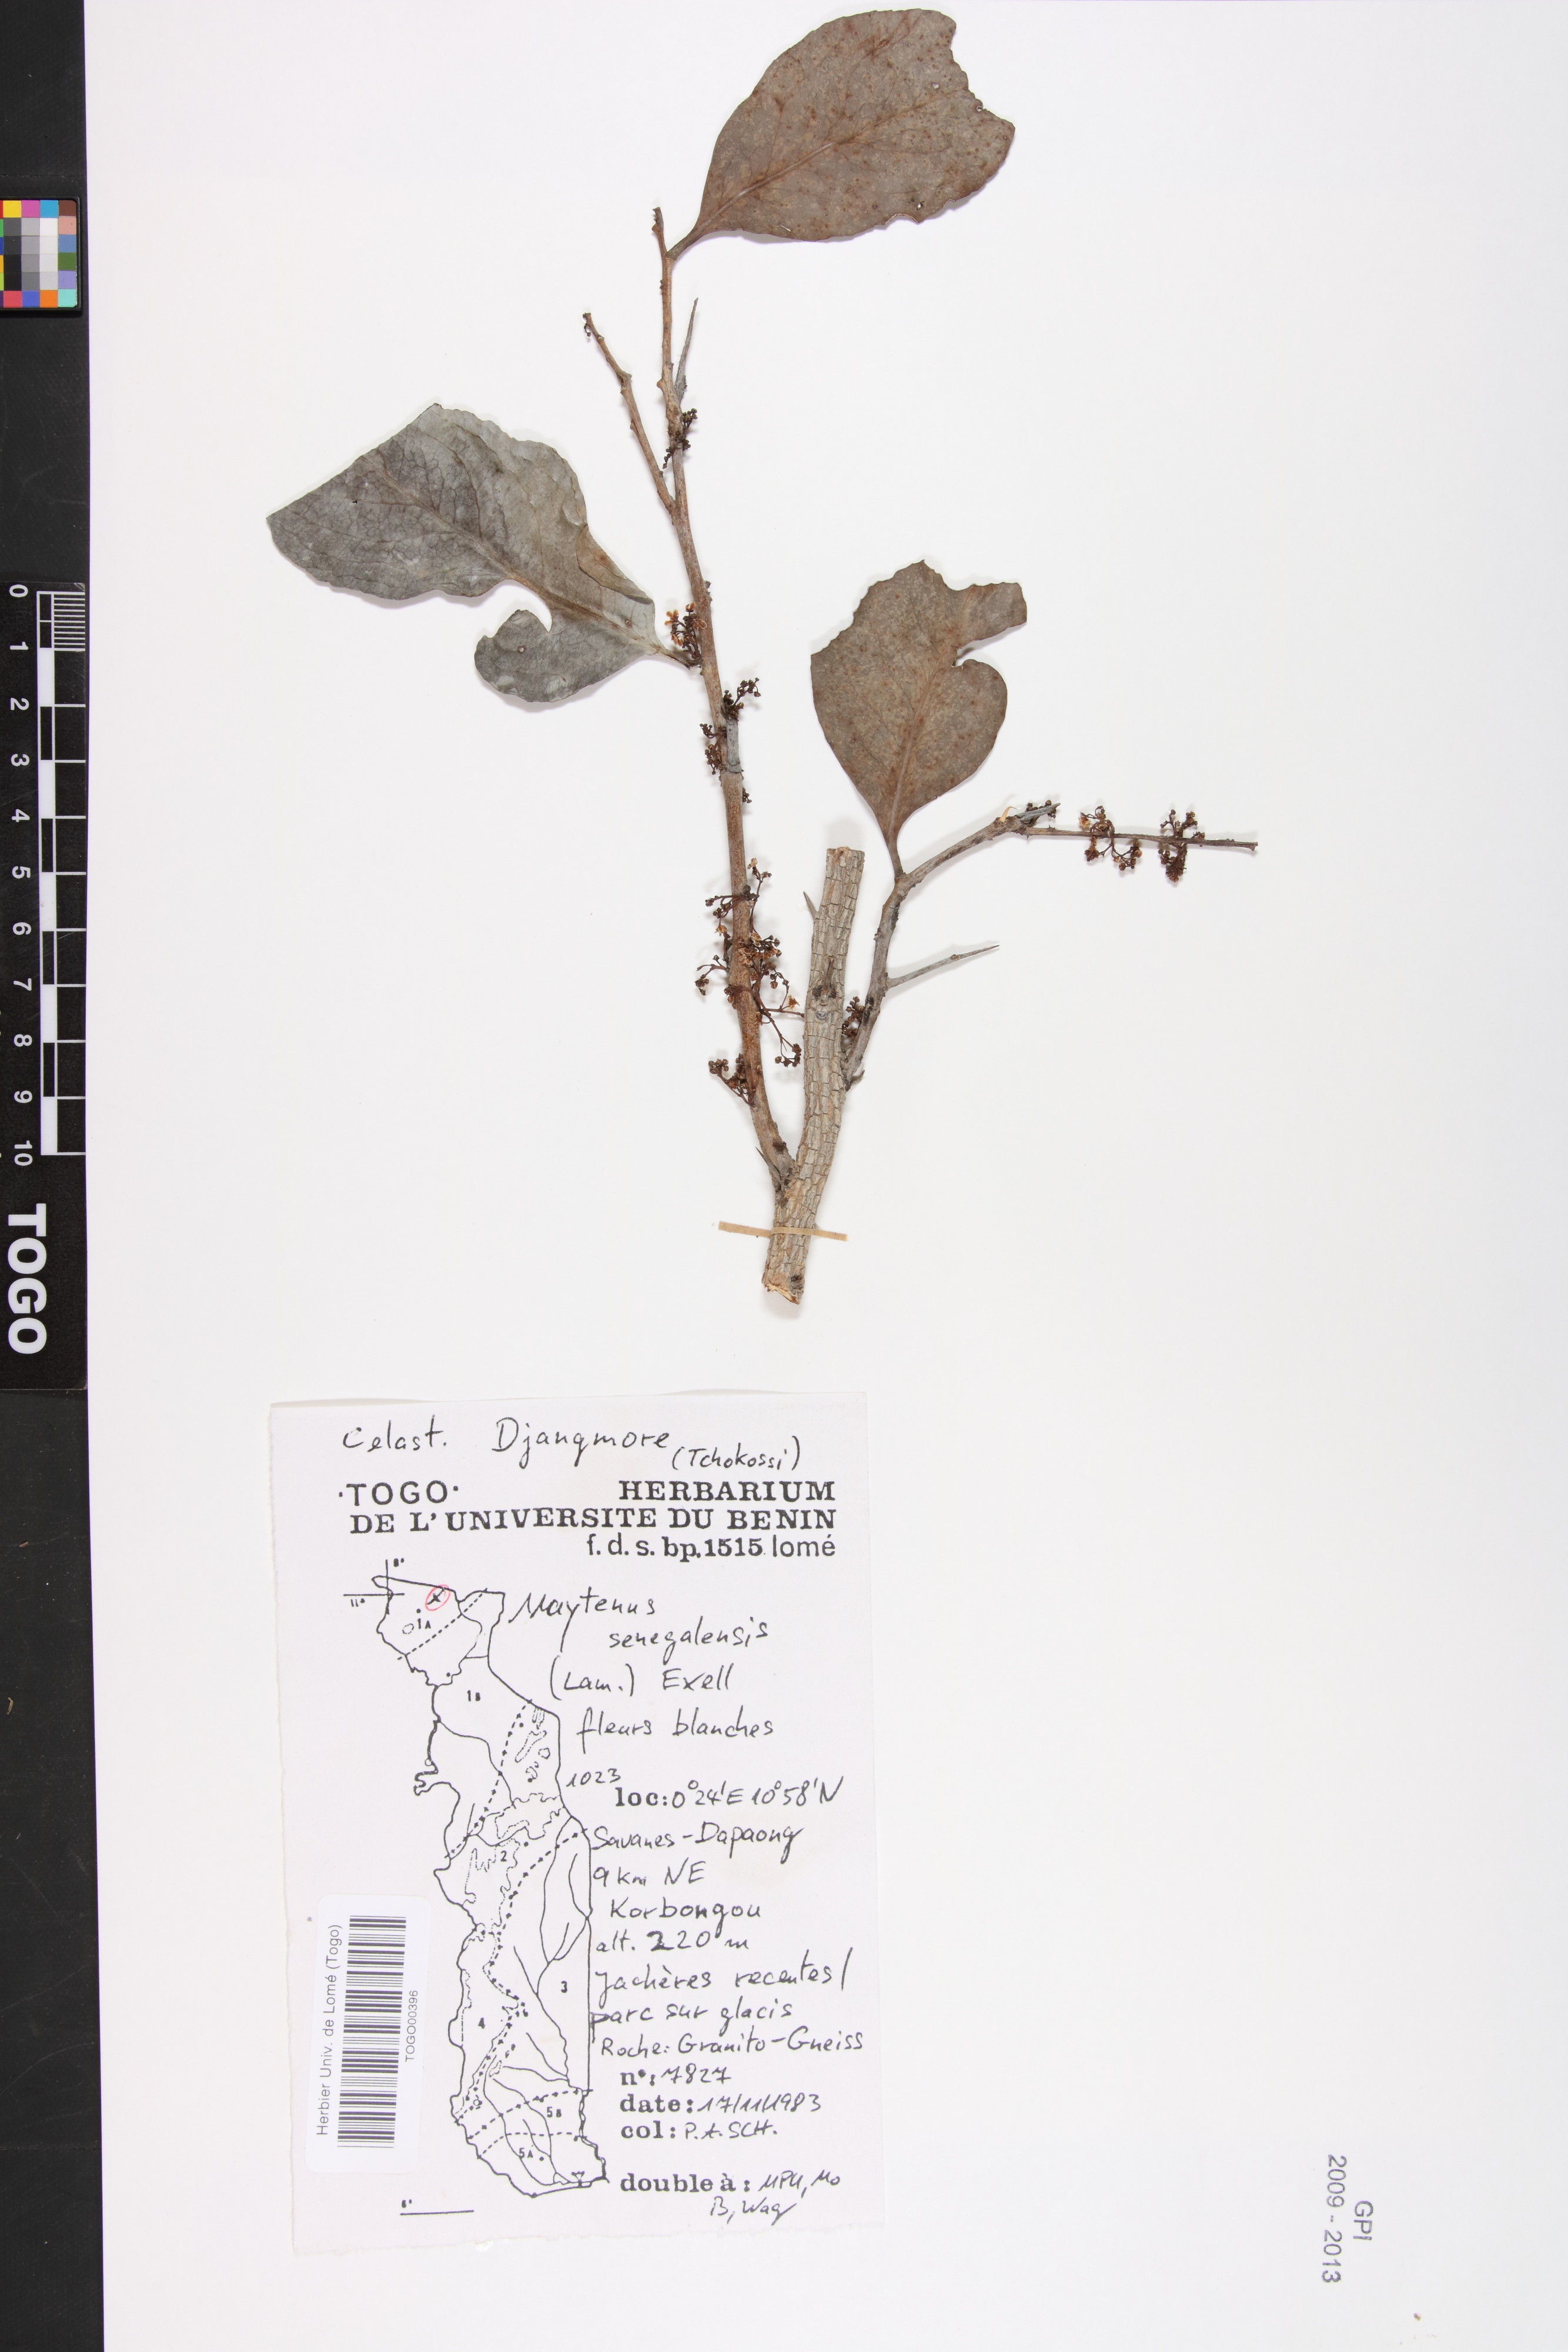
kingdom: Plantae
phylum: Tracheophyta
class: Magnoliopsida
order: Celastrales
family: Celastraceae
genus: Gymnosporia
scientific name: Gymnosporia senegalensis
